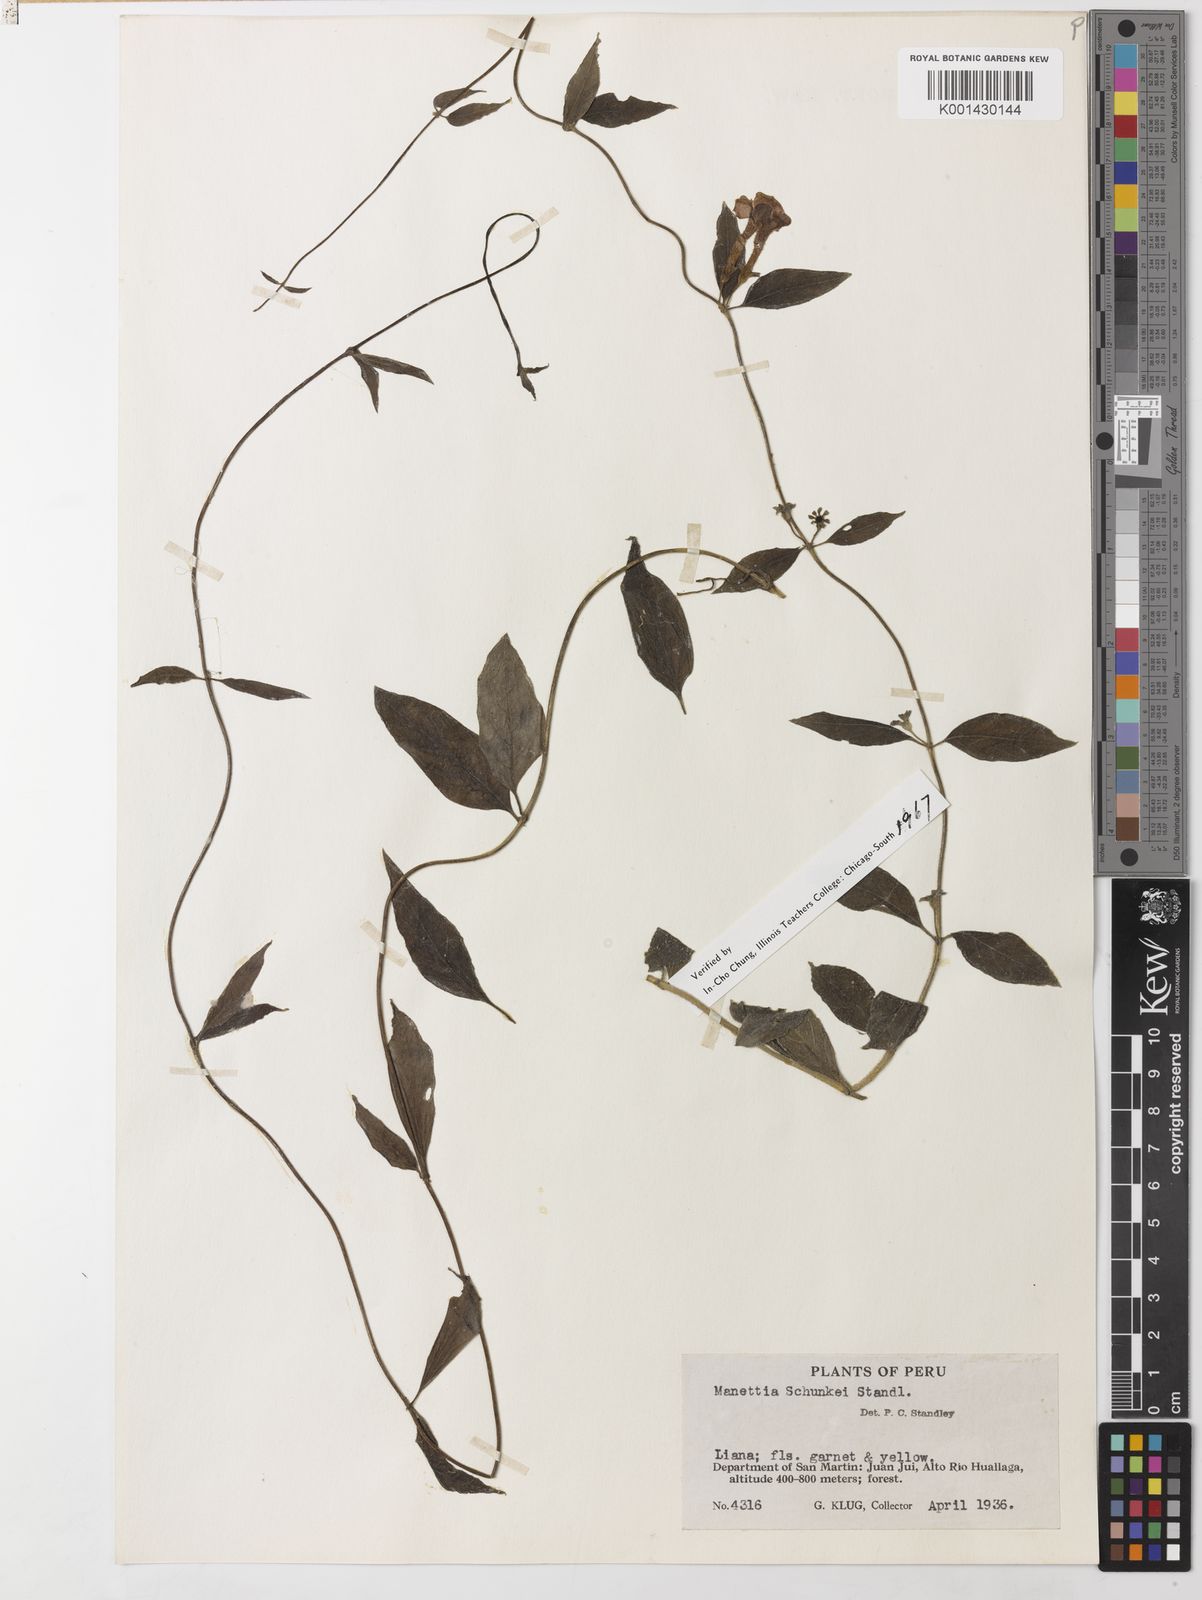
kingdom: Plantae
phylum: Tracheophyta
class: Magnoliopsida
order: Gentianales
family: Rubiaceae
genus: Manettia
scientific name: Manettia pearcei
